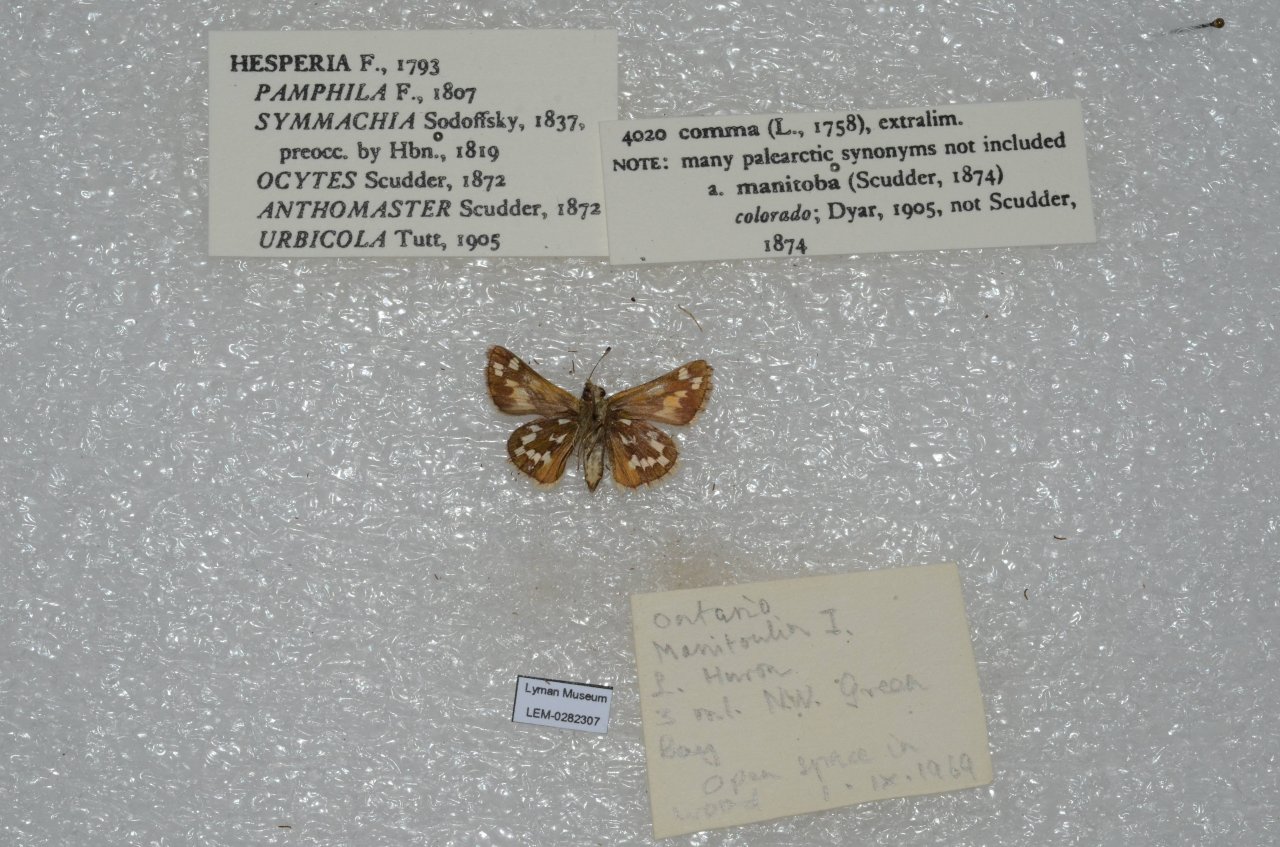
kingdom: Animalia
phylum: Arthropoda
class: Insecta
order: Lepidoptera
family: Hesperiidae
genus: Hesperia
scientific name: Hesperia comma
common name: Common Branded Skipper
